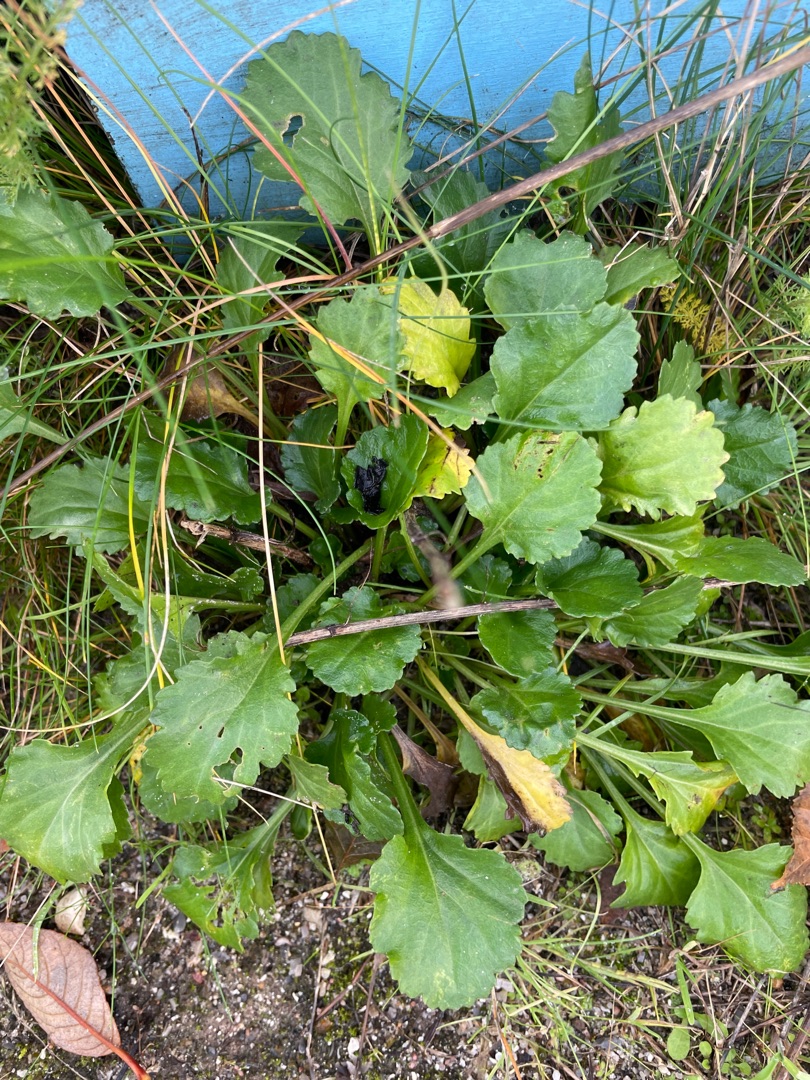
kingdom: Plantae
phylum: Tracheophyta
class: Magnoliopsida
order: Asterales
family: Asteraceae
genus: Leucanthemum
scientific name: Leucanthemum vulgare
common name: Hvid okseøje
